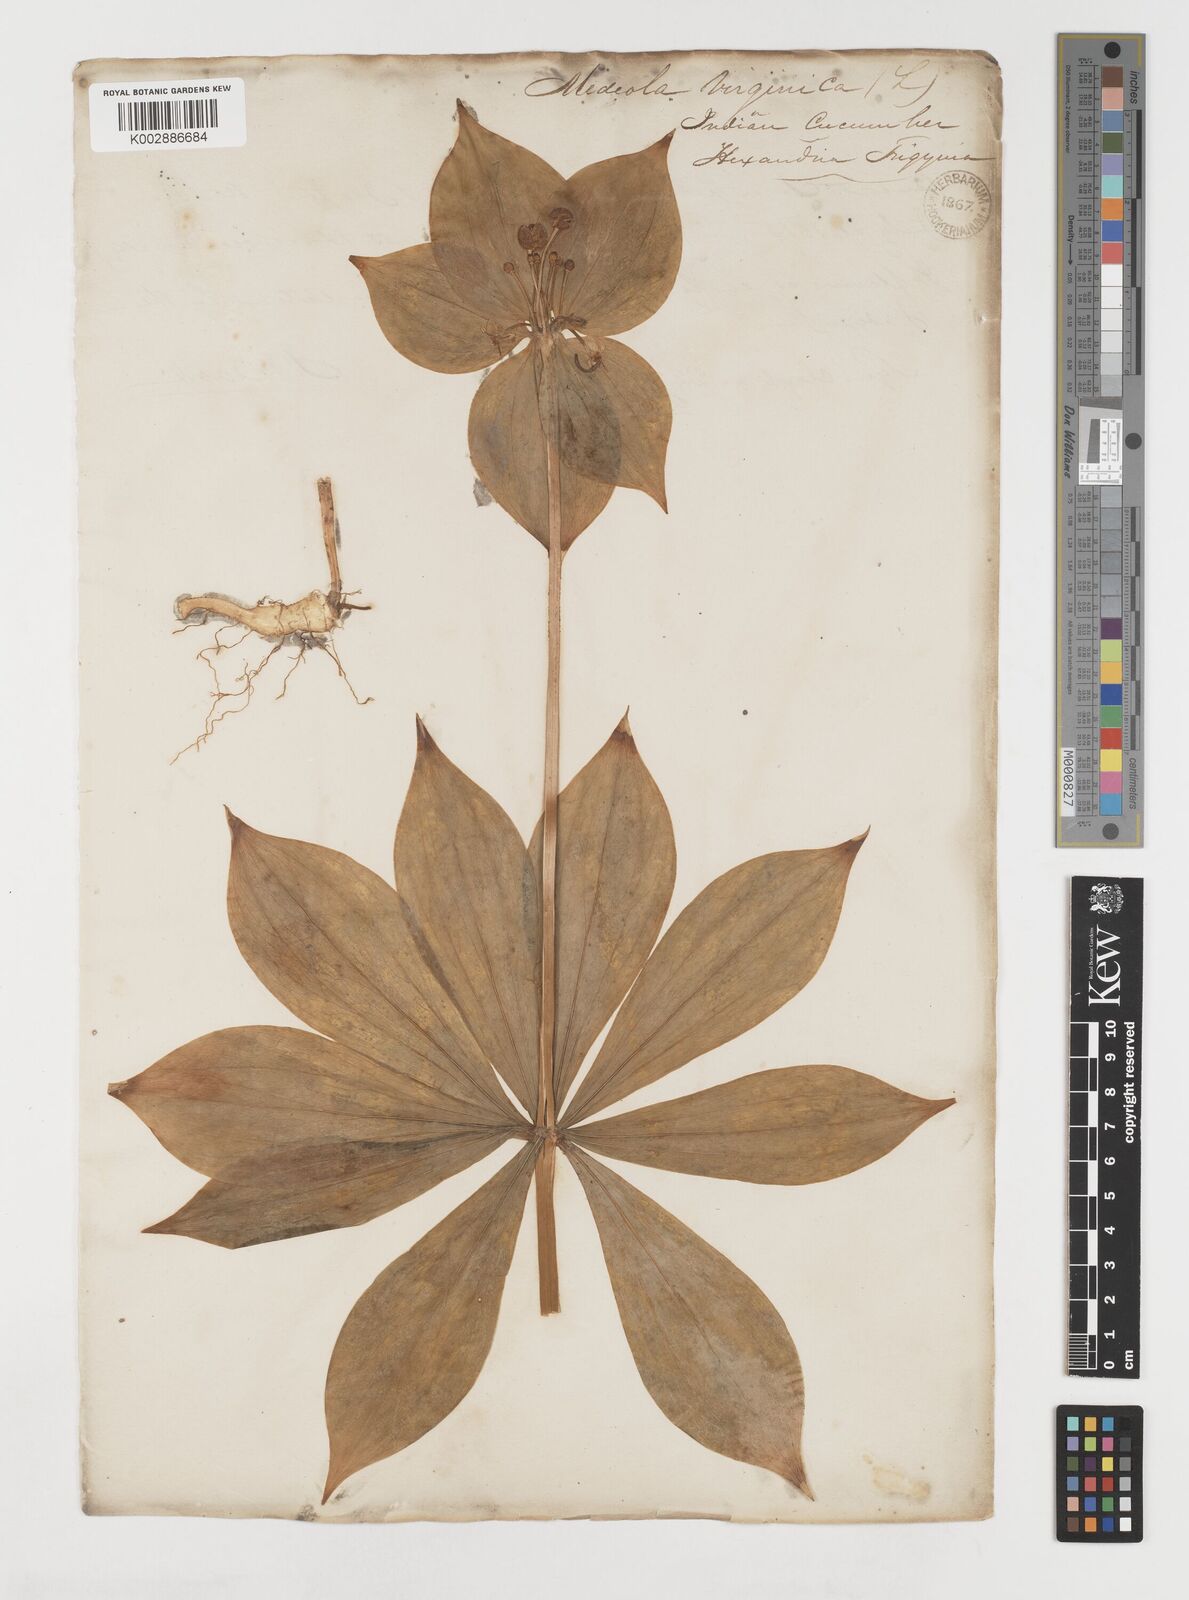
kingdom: Plantae
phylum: Tracheophyta
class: Liliopsida
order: Liliales
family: Liliaceae
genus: Medeola
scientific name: Medeola virginiana
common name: Indian cucumber-root
